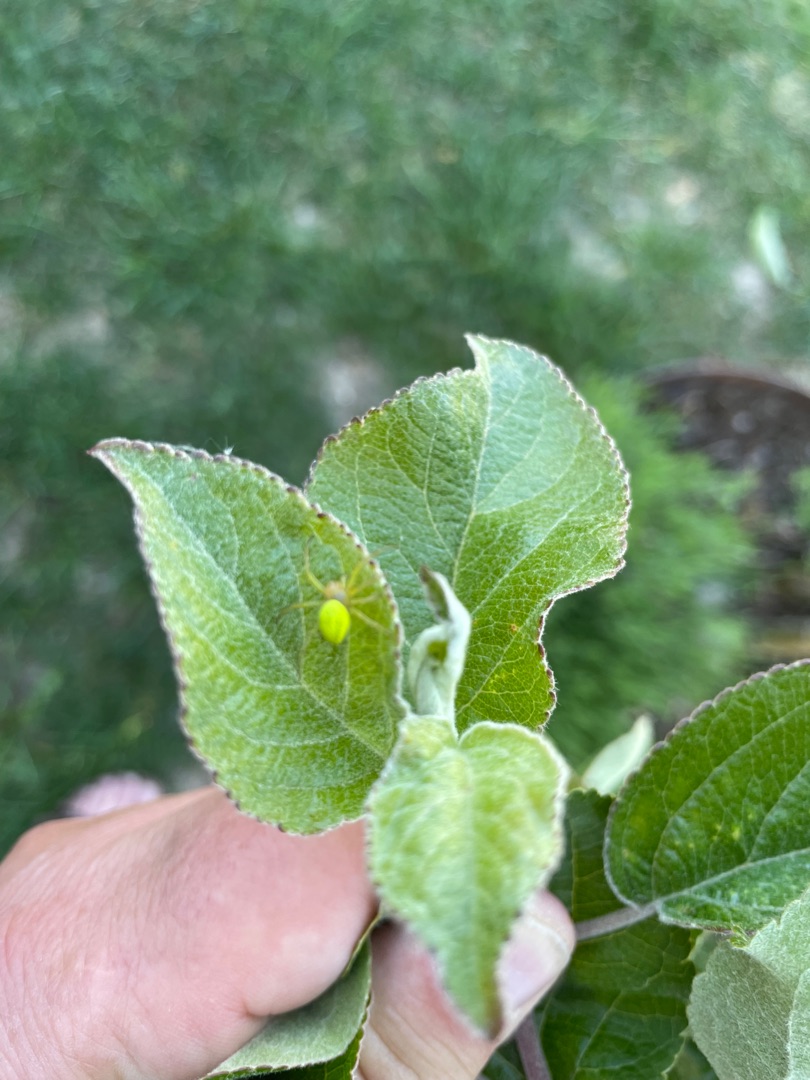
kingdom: Animalia
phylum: Arthropoda
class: Arachnida
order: Araneae
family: Araneidae
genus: Araniella
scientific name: Araniella
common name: Agurkeedderkopslægten
